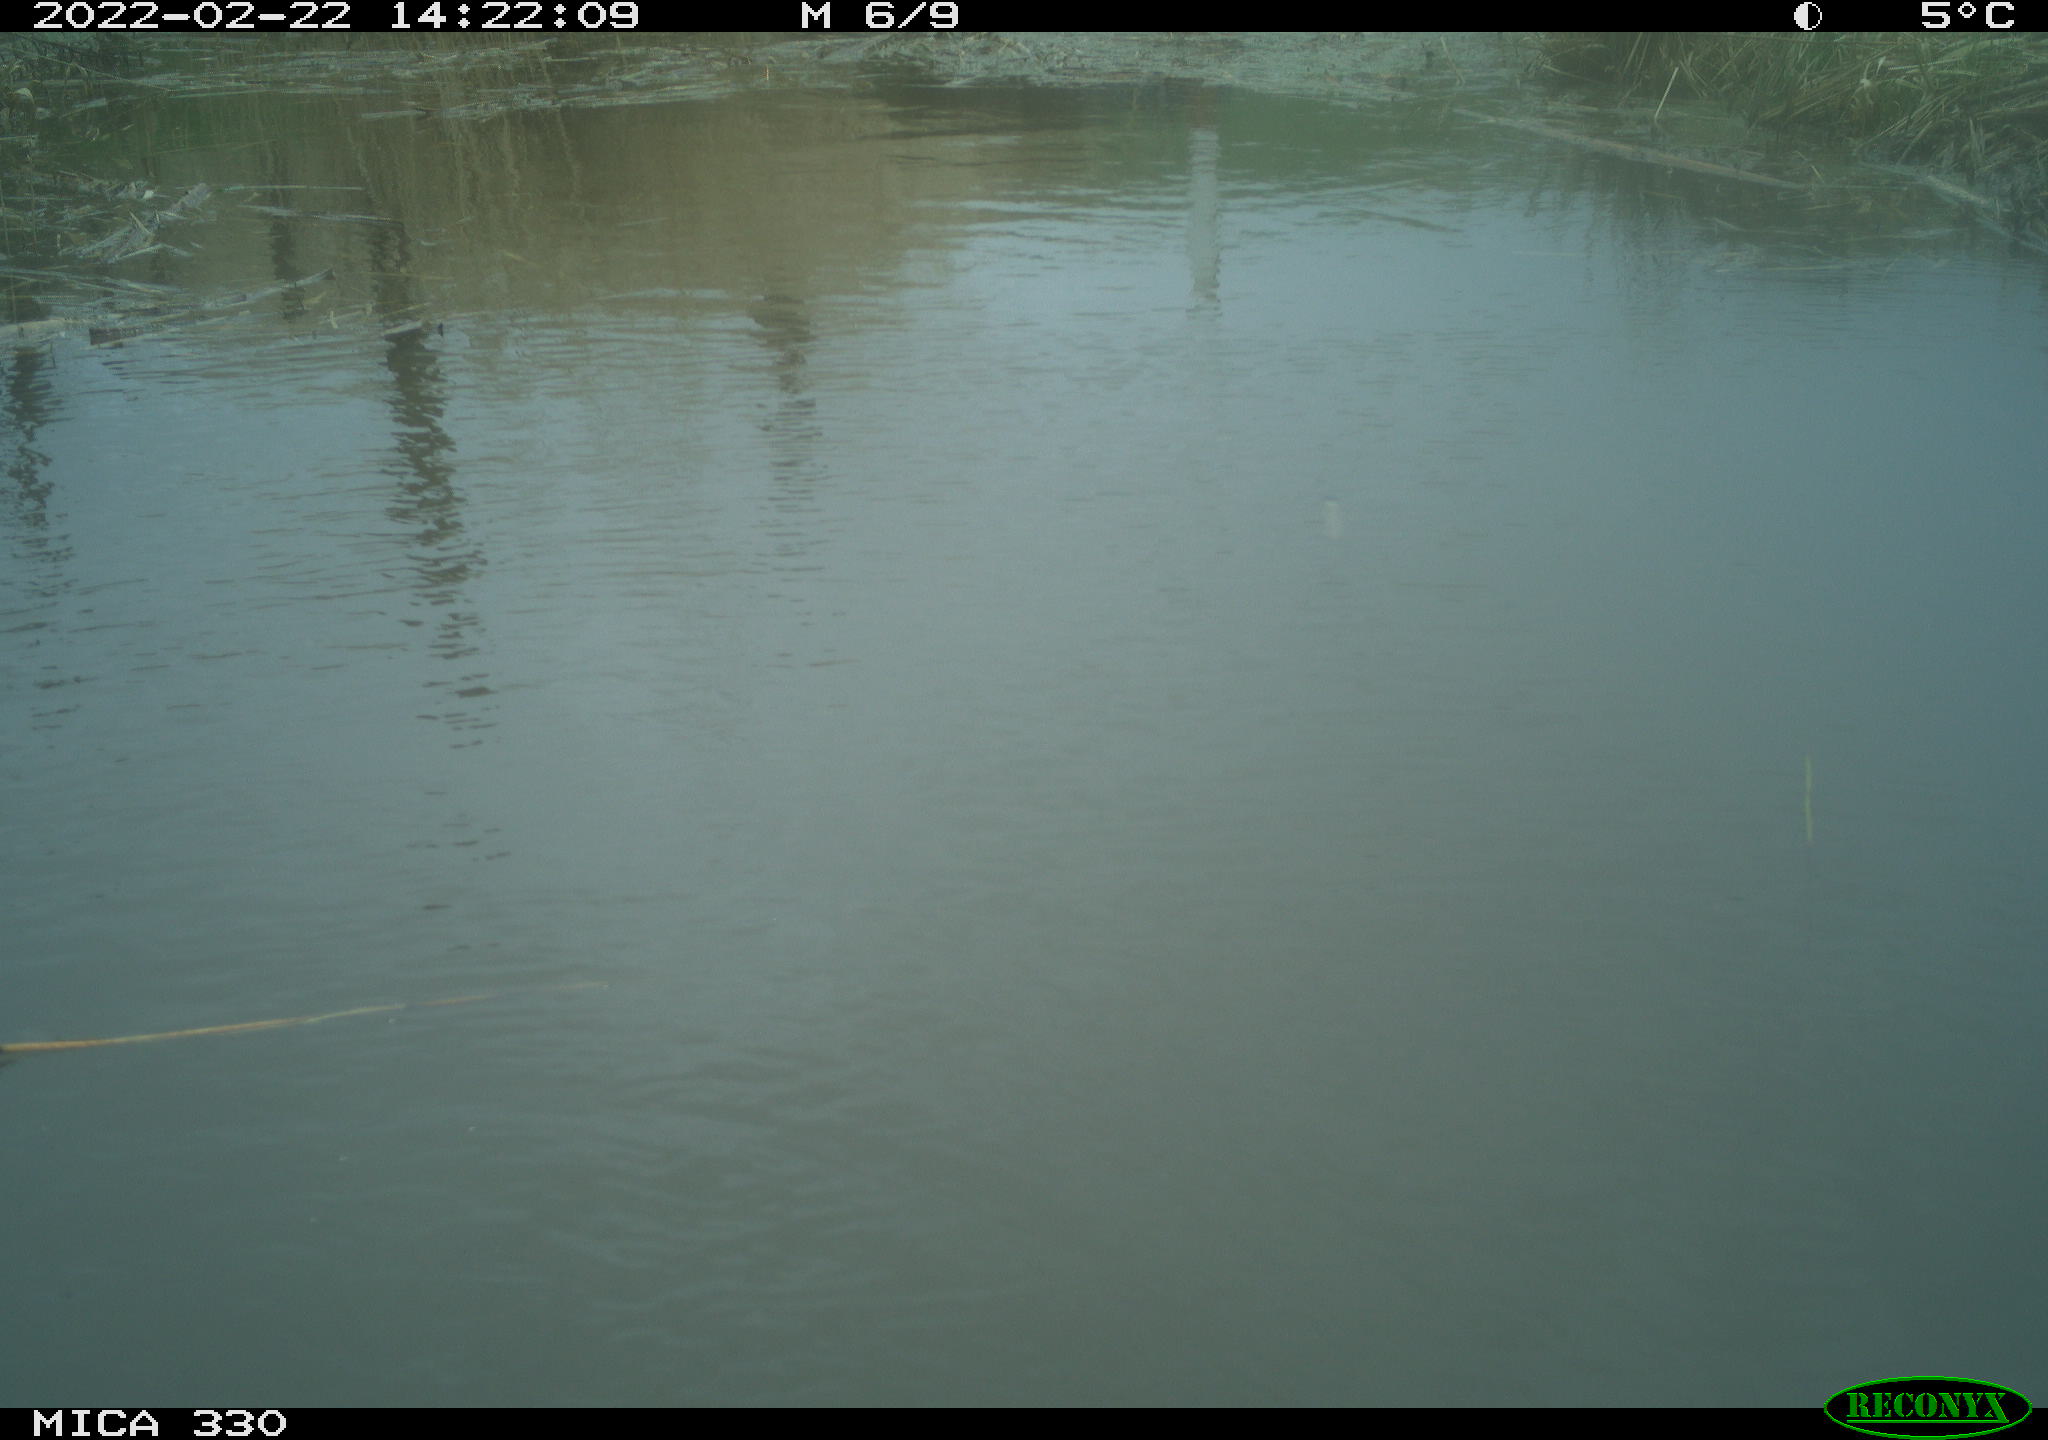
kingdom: Animalia
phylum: Chordata
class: Aves
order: Gruiformes
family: Rallidae
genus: Gallinula
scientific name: Gallinula chloropus
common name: Common moorhen
